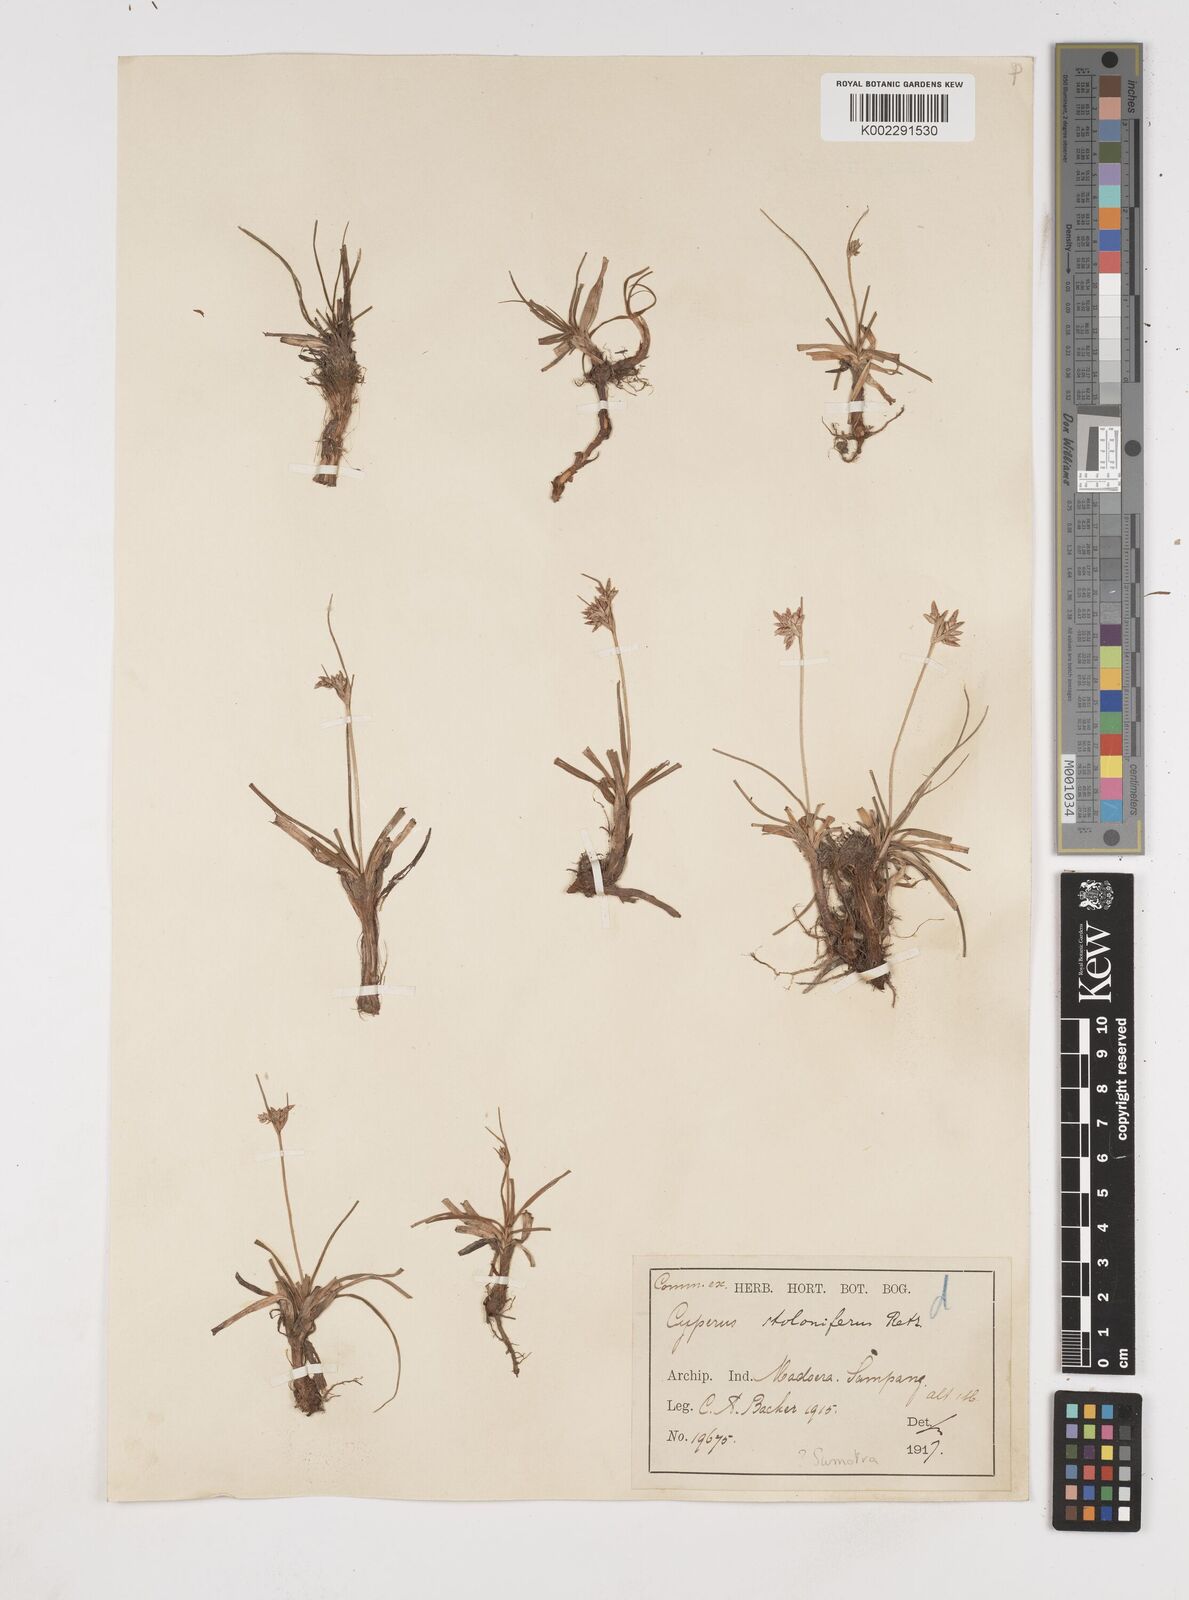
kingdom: Plantae
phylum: Tracheophyta
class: Liliopsida
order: Poales
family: Cyperaceae
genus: Cyperus
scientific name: Cyperus bulbosus
